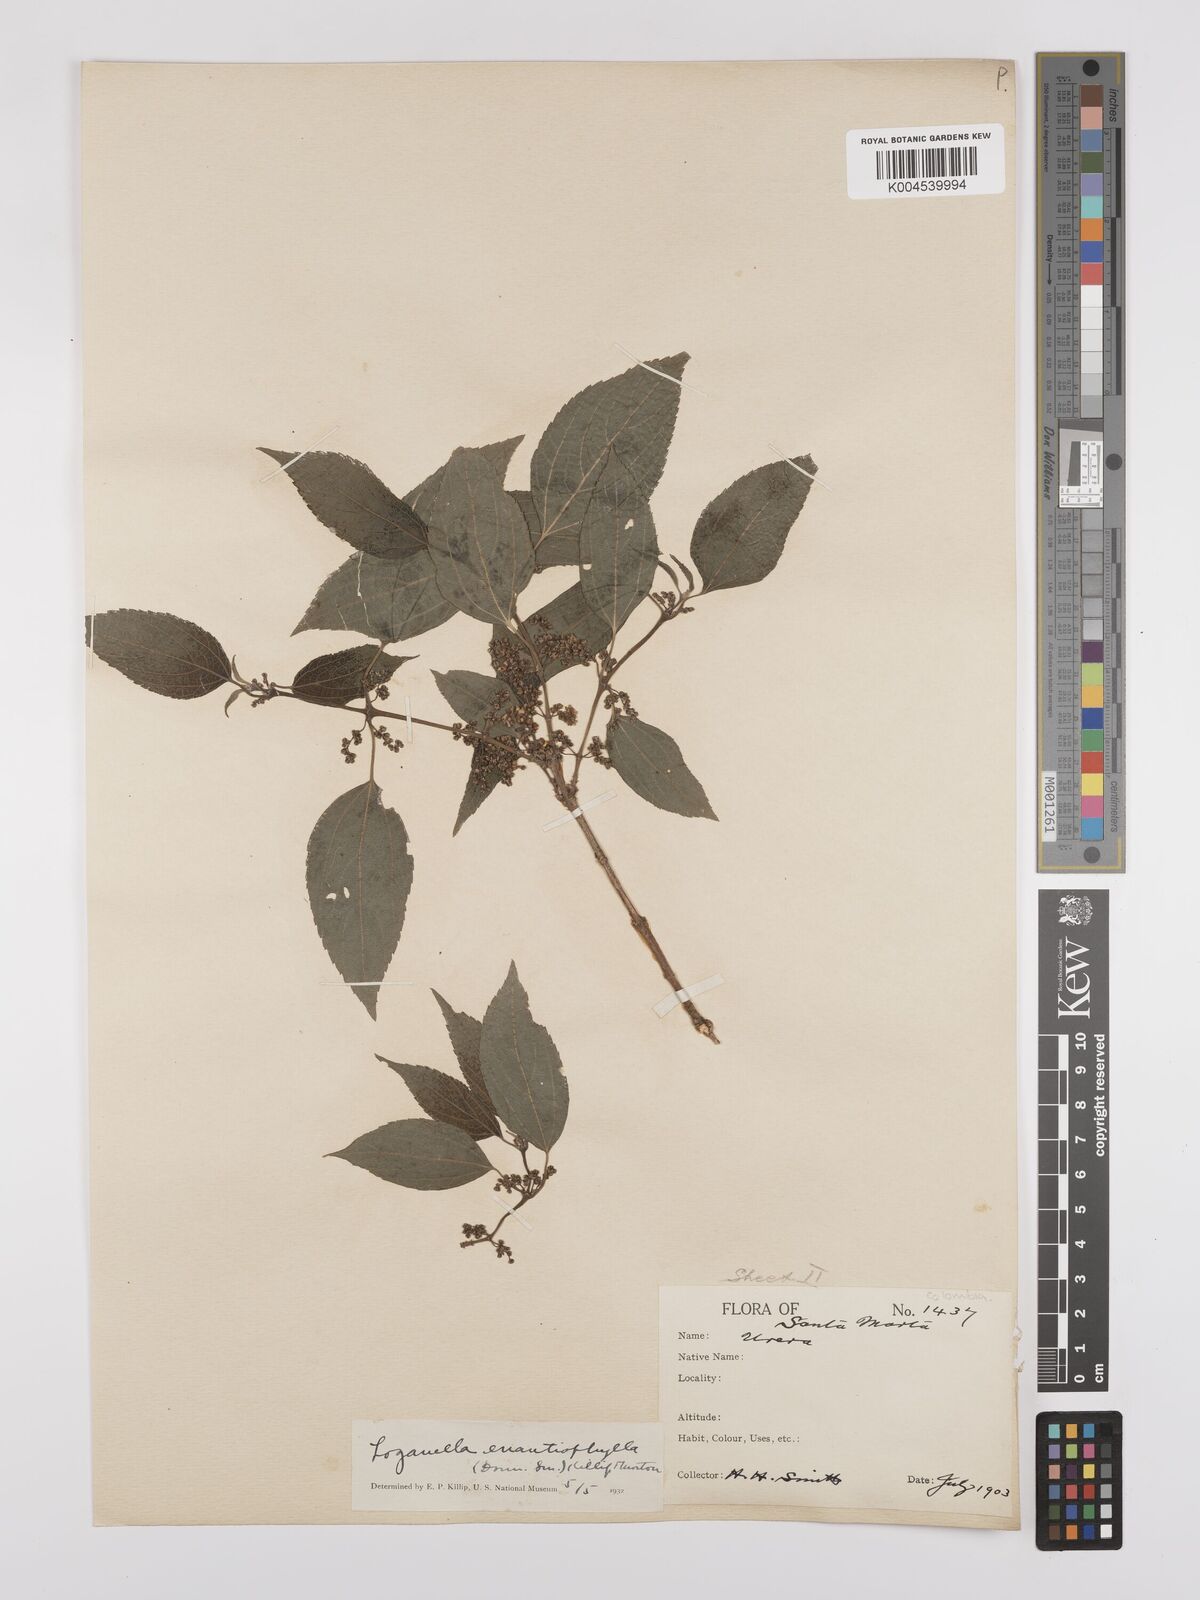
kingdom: Plantae
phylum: Tracheophyta
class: Magnoliopsida
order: Rosales
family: Cannabaceae
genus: Lozanella
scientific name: Lozanella enantiophylla
